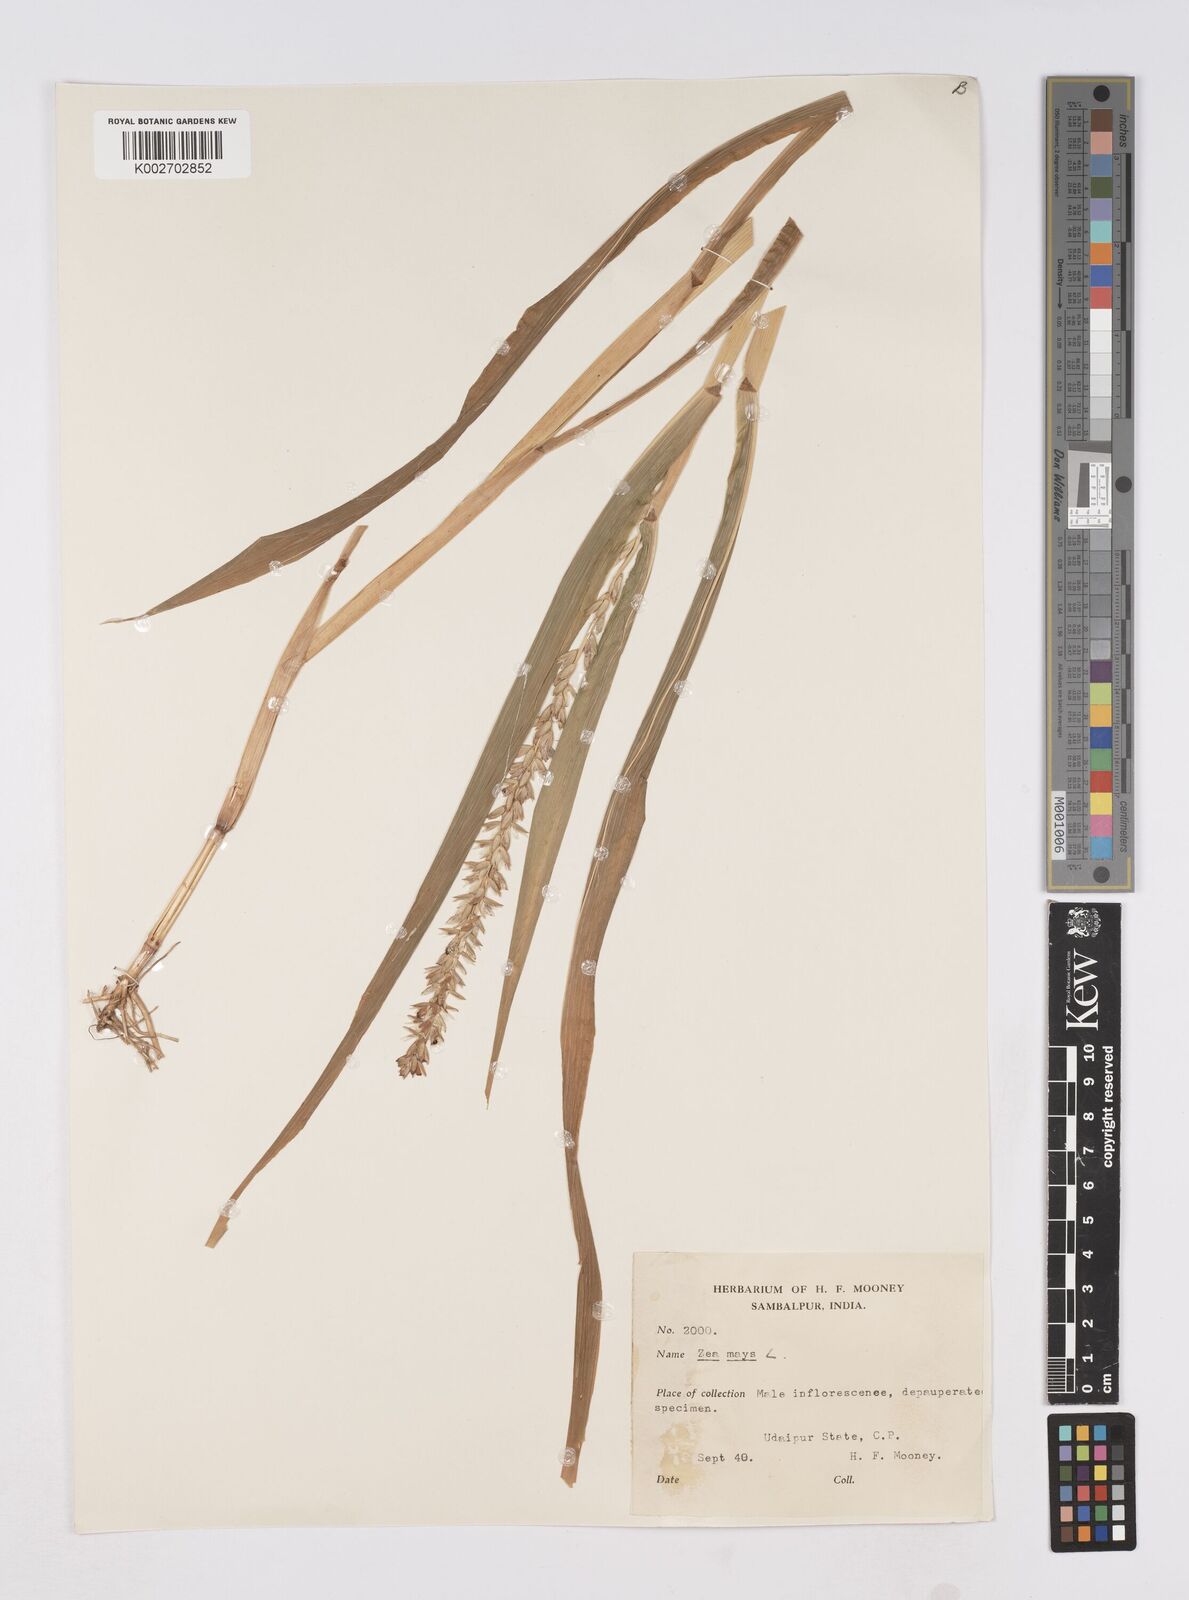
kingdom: Plantae
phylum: Tracheophyta
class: Liliopsida
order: Poales
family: Poaceae
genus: Zea
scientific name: Zea mays
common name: Maize
